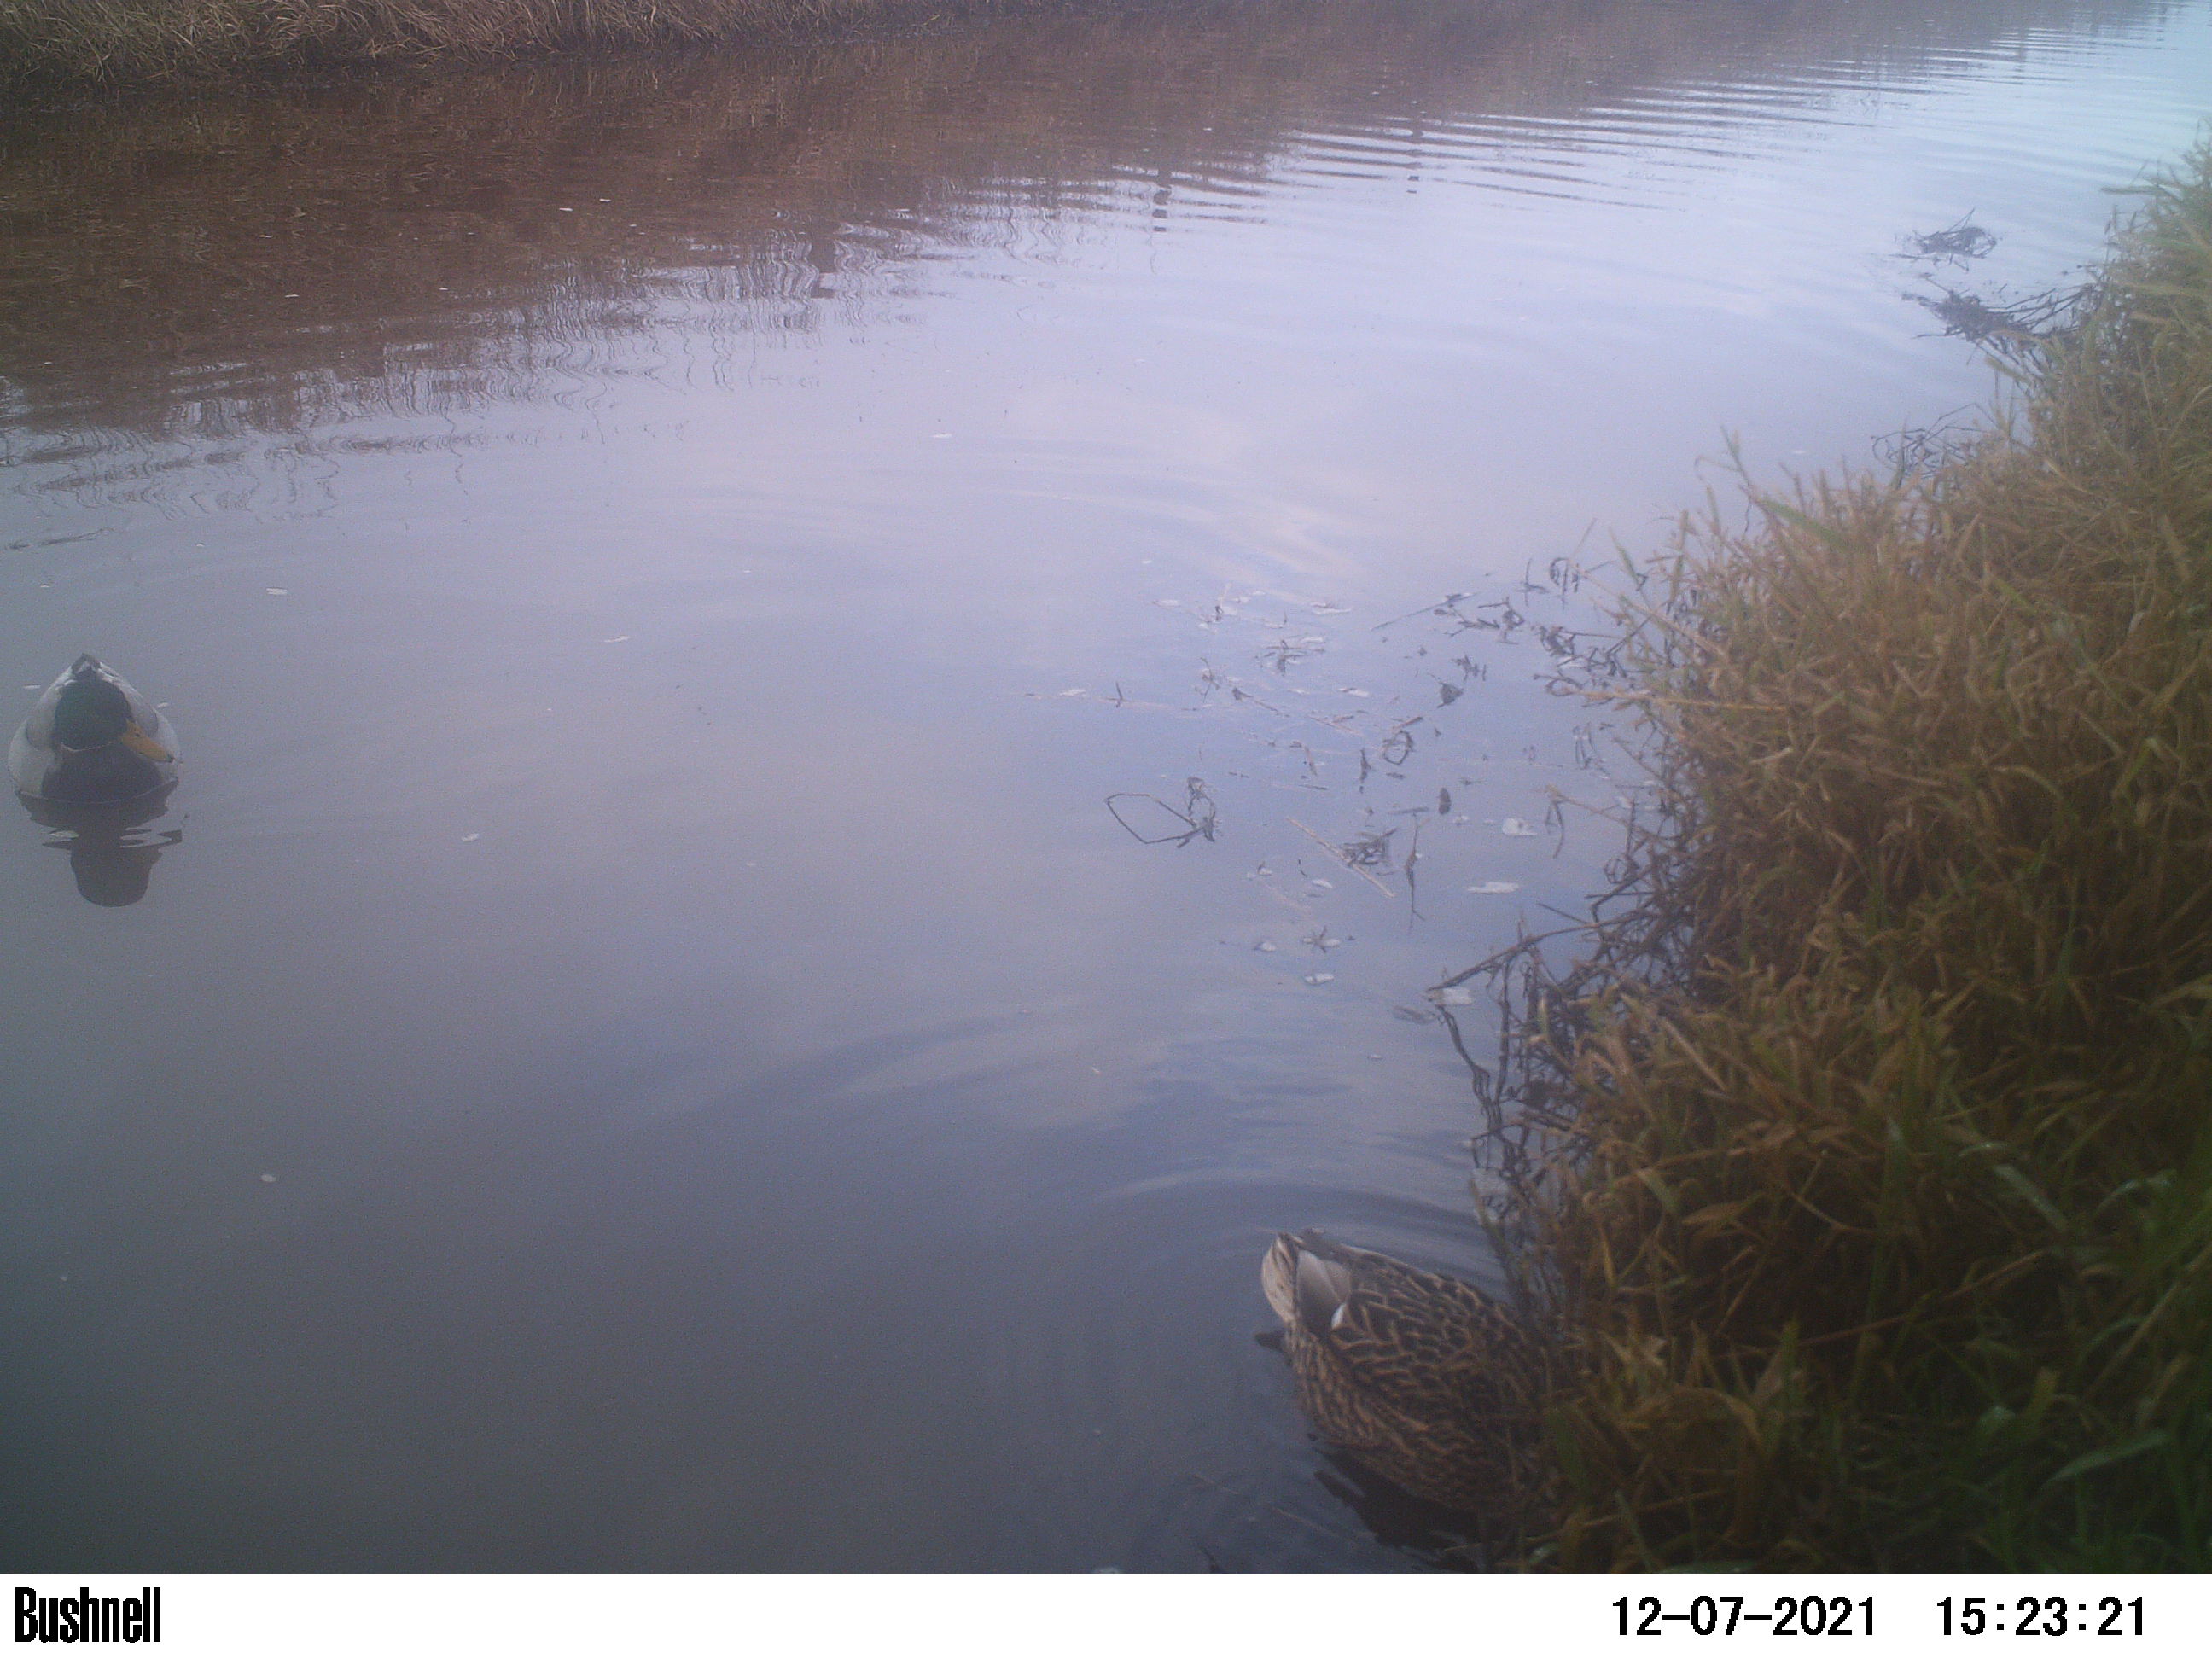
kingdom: Animalia
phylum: Chordata
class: Aves
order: Anseriformes
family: Anatidae
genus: Anas
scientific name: Anas
